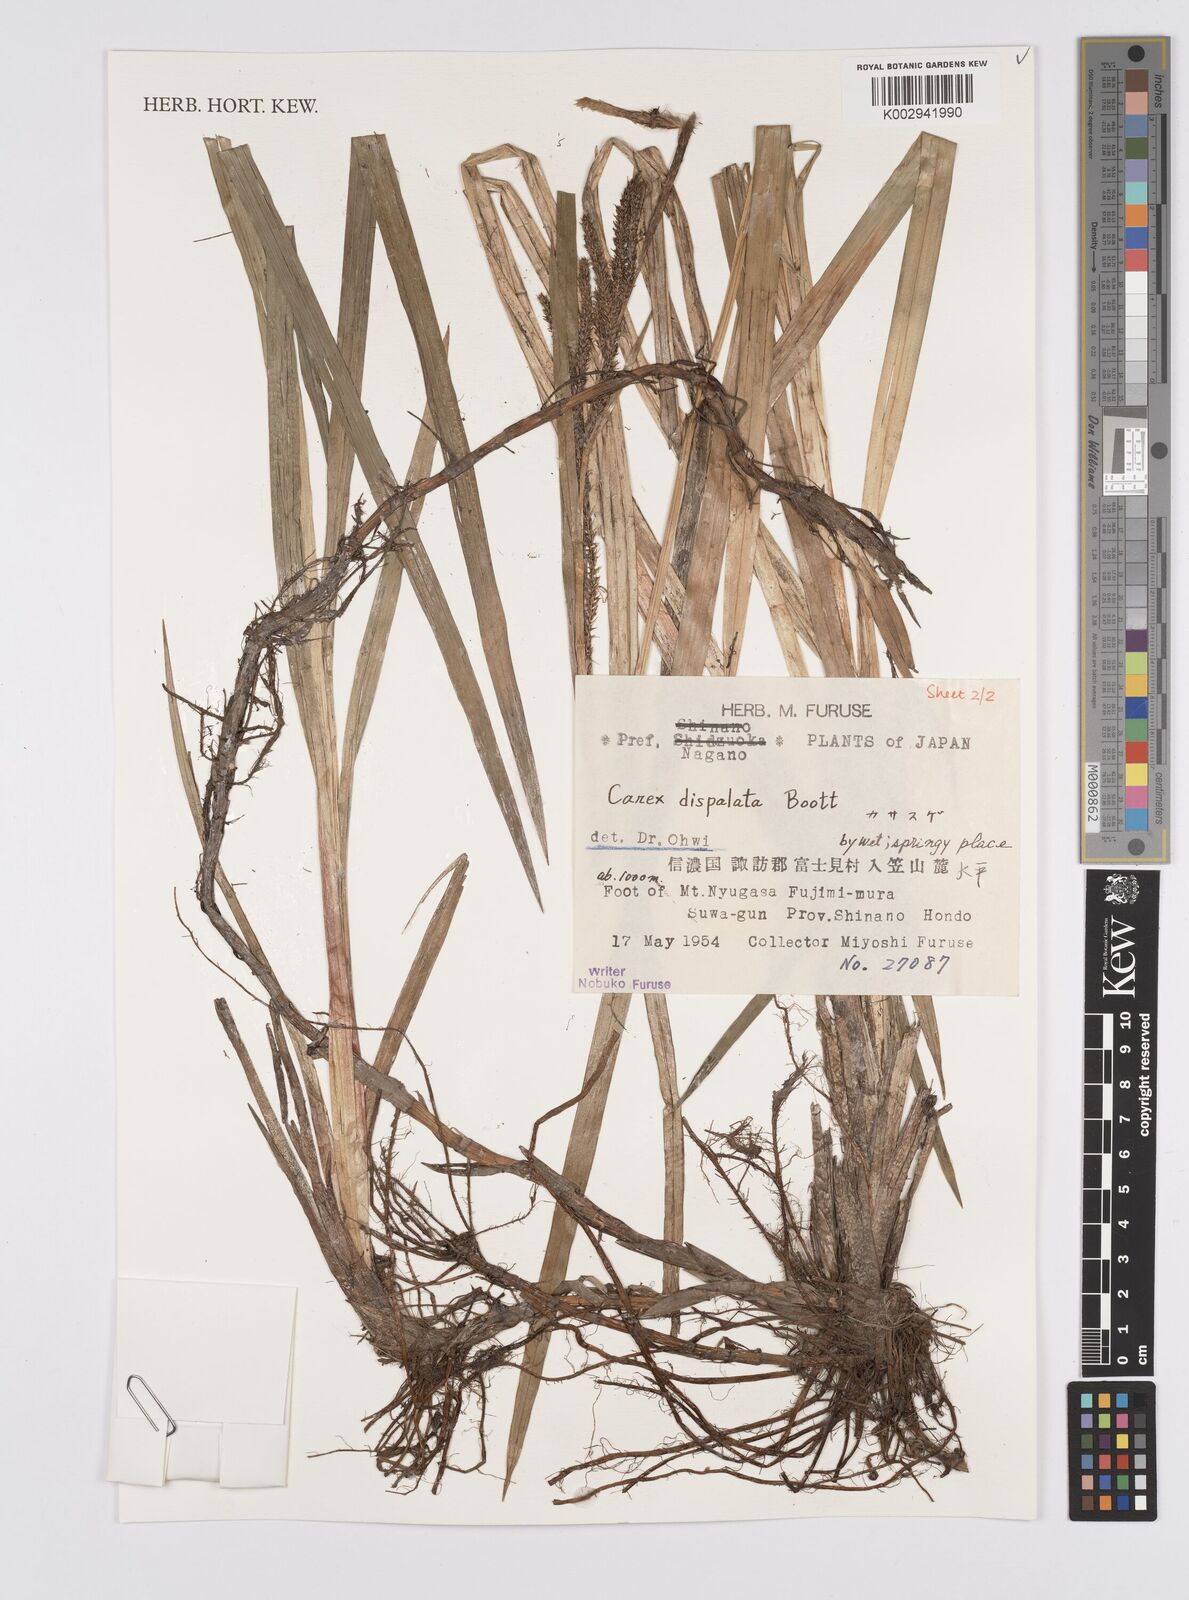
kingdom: Plantae
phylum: Tracheophyta
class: Liliopsida
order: Poales
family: Cyperaceae
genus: Carex
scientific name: Carex dispalata
